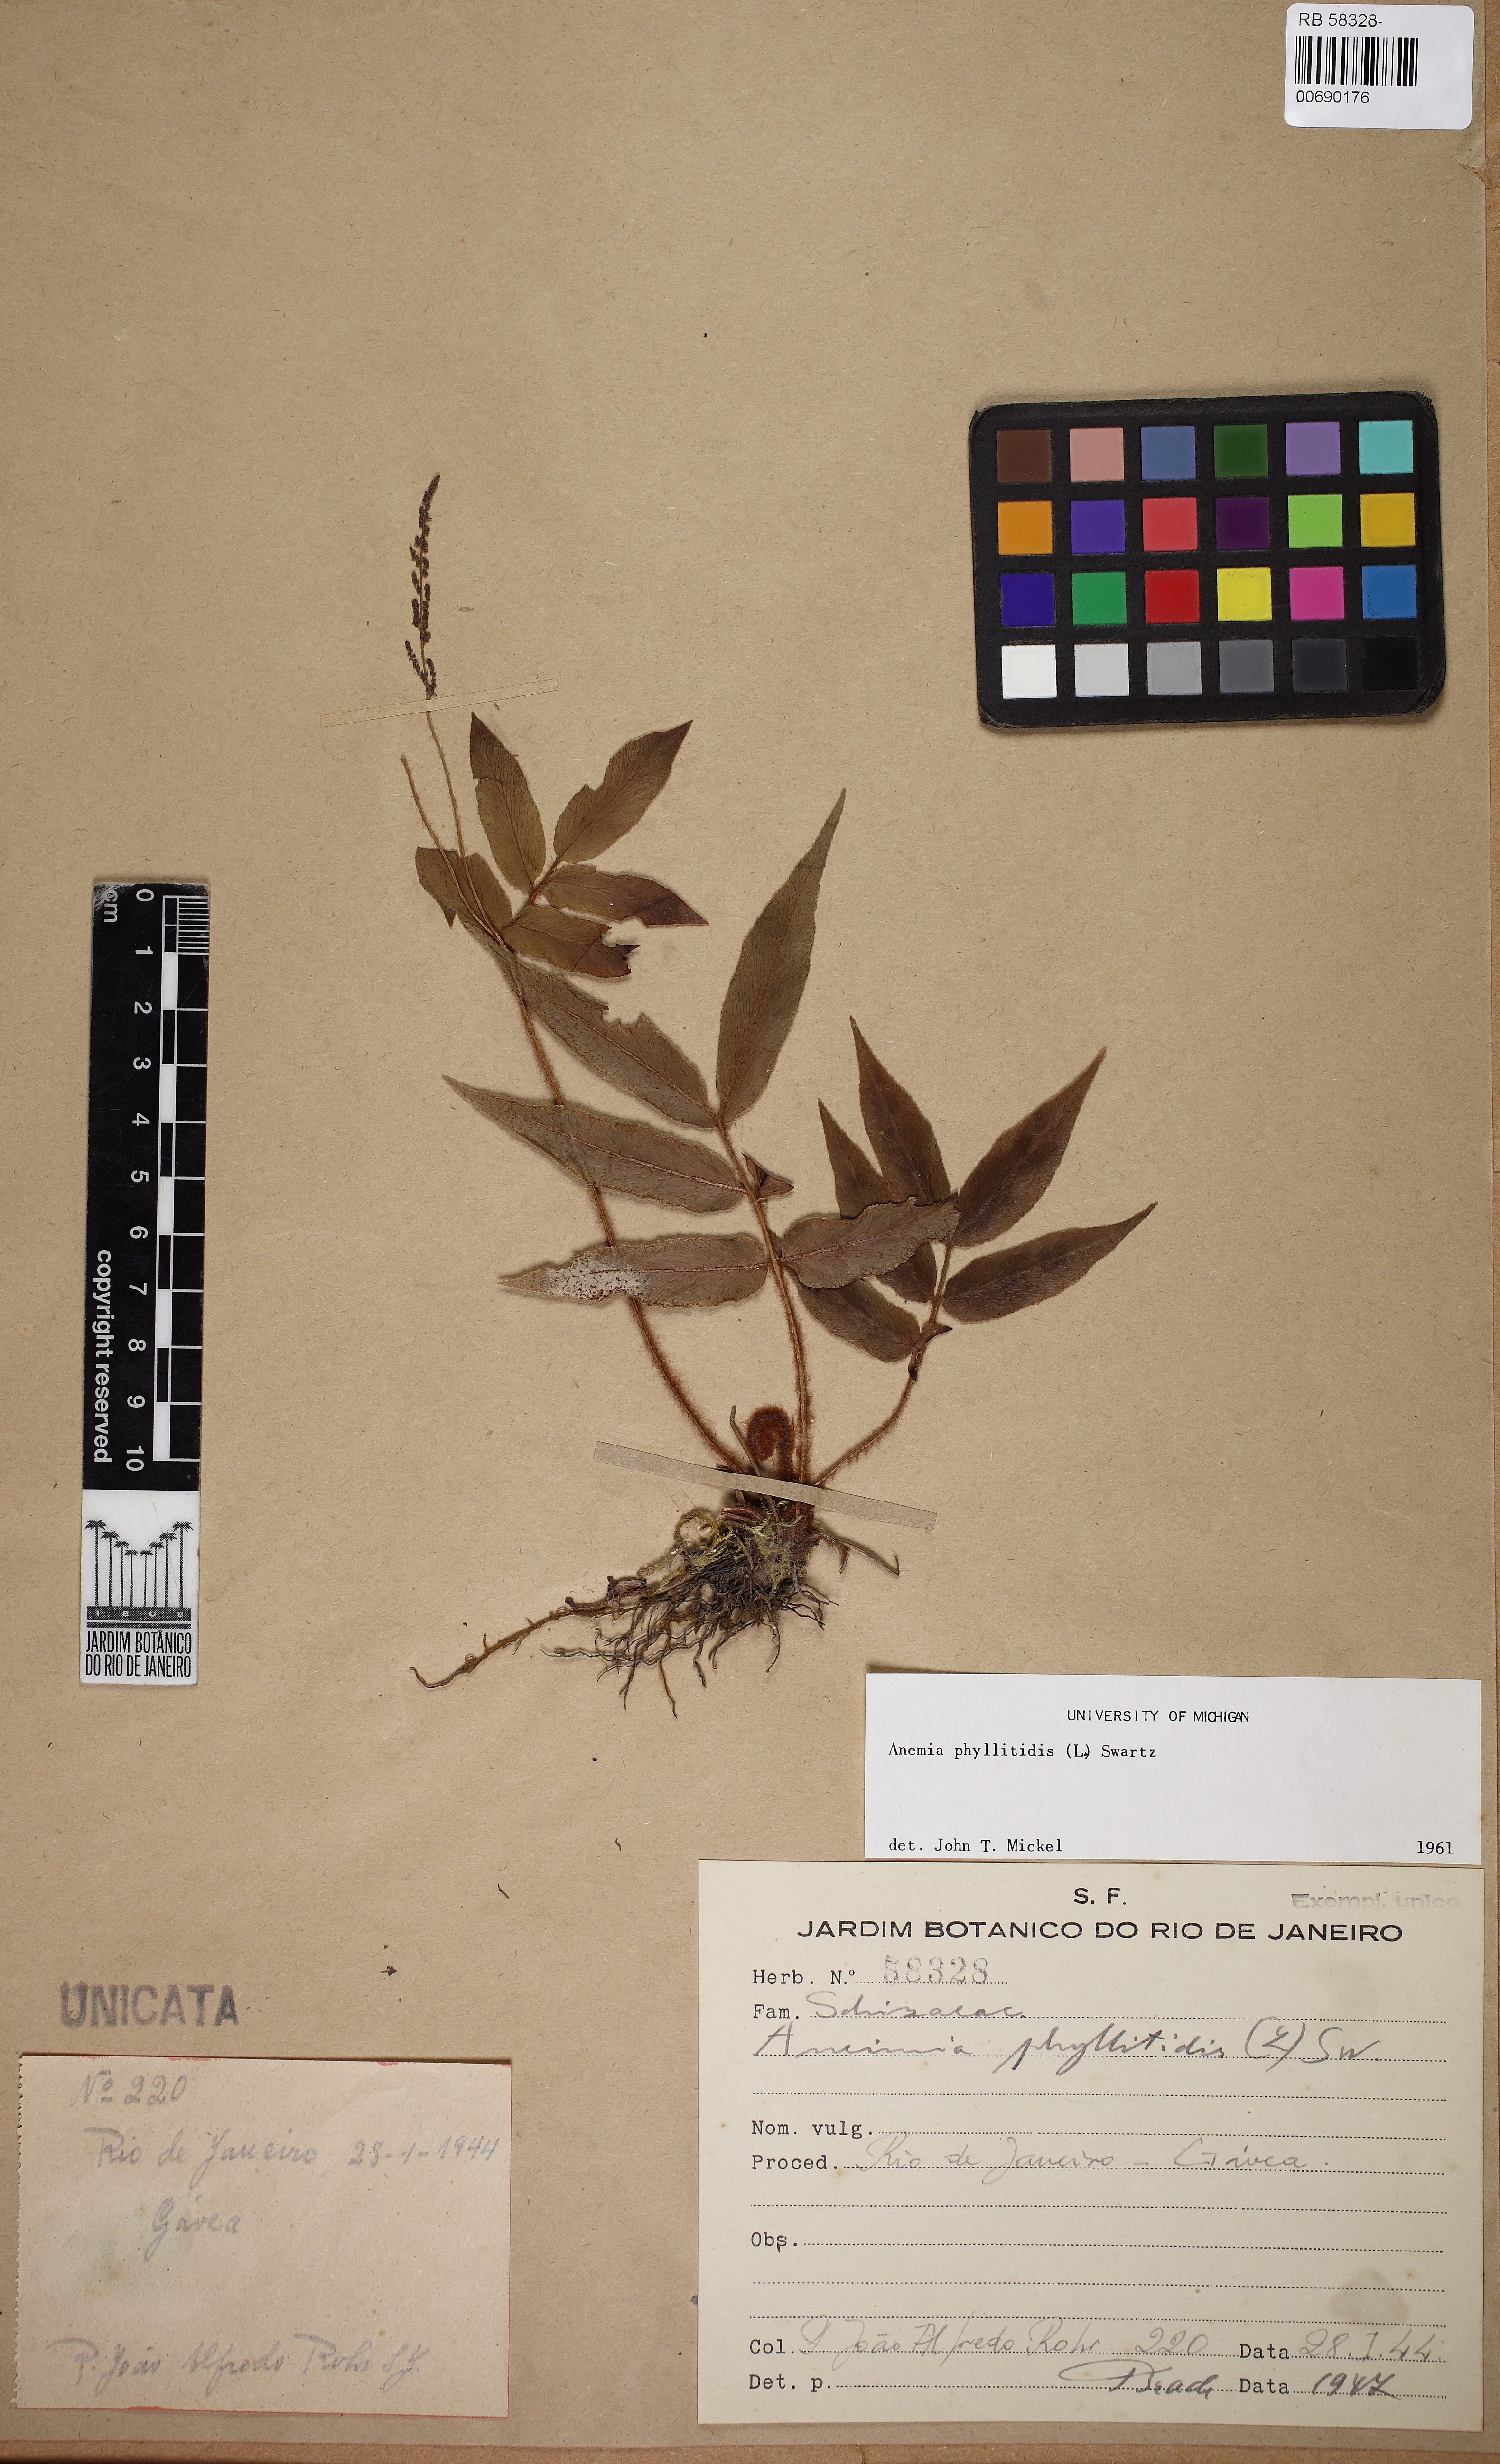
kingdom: Plantae
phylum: Tracheophyta
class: Polypodiopsida
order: Schizaeales
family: Anemiaceae
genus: Anemia
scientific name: Anemia phyllitidis
